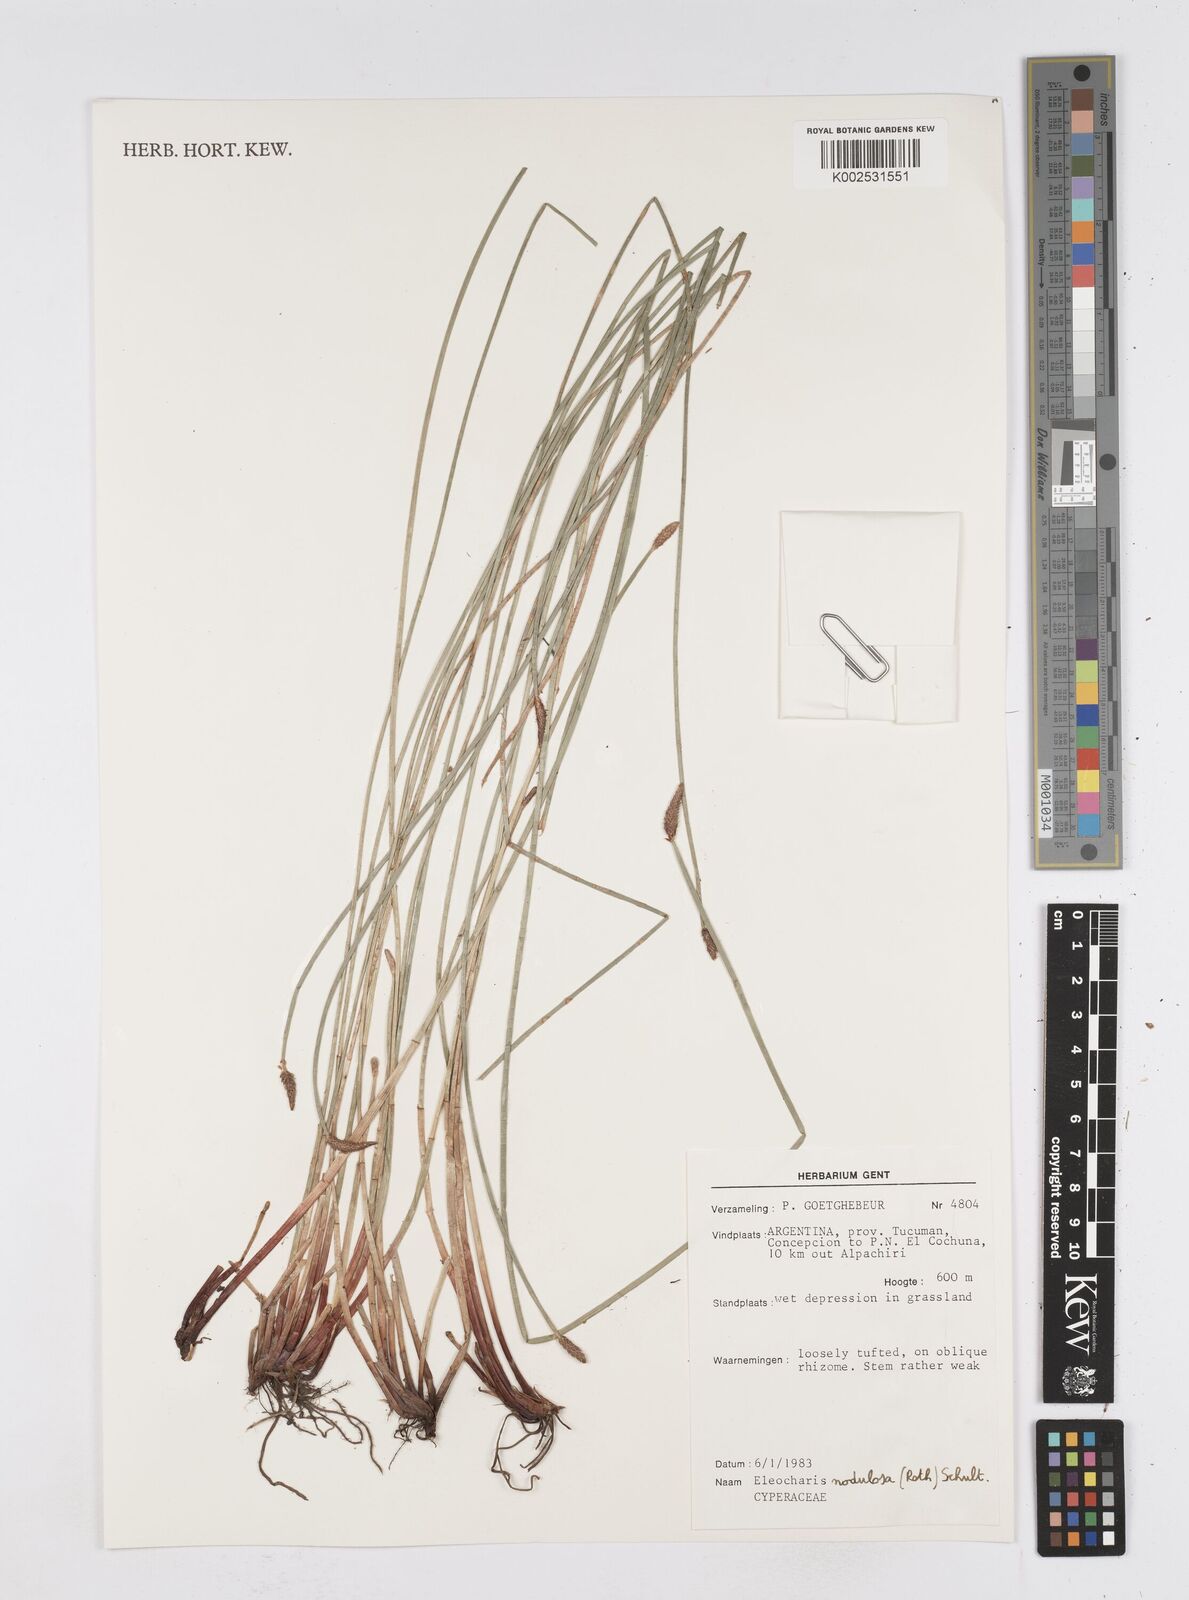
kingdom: Plantae
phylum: Tracheophyta
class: Liliopsida
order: Poales
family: Cyperaceae
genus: Eleocharis
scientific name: Eleocharis montana
